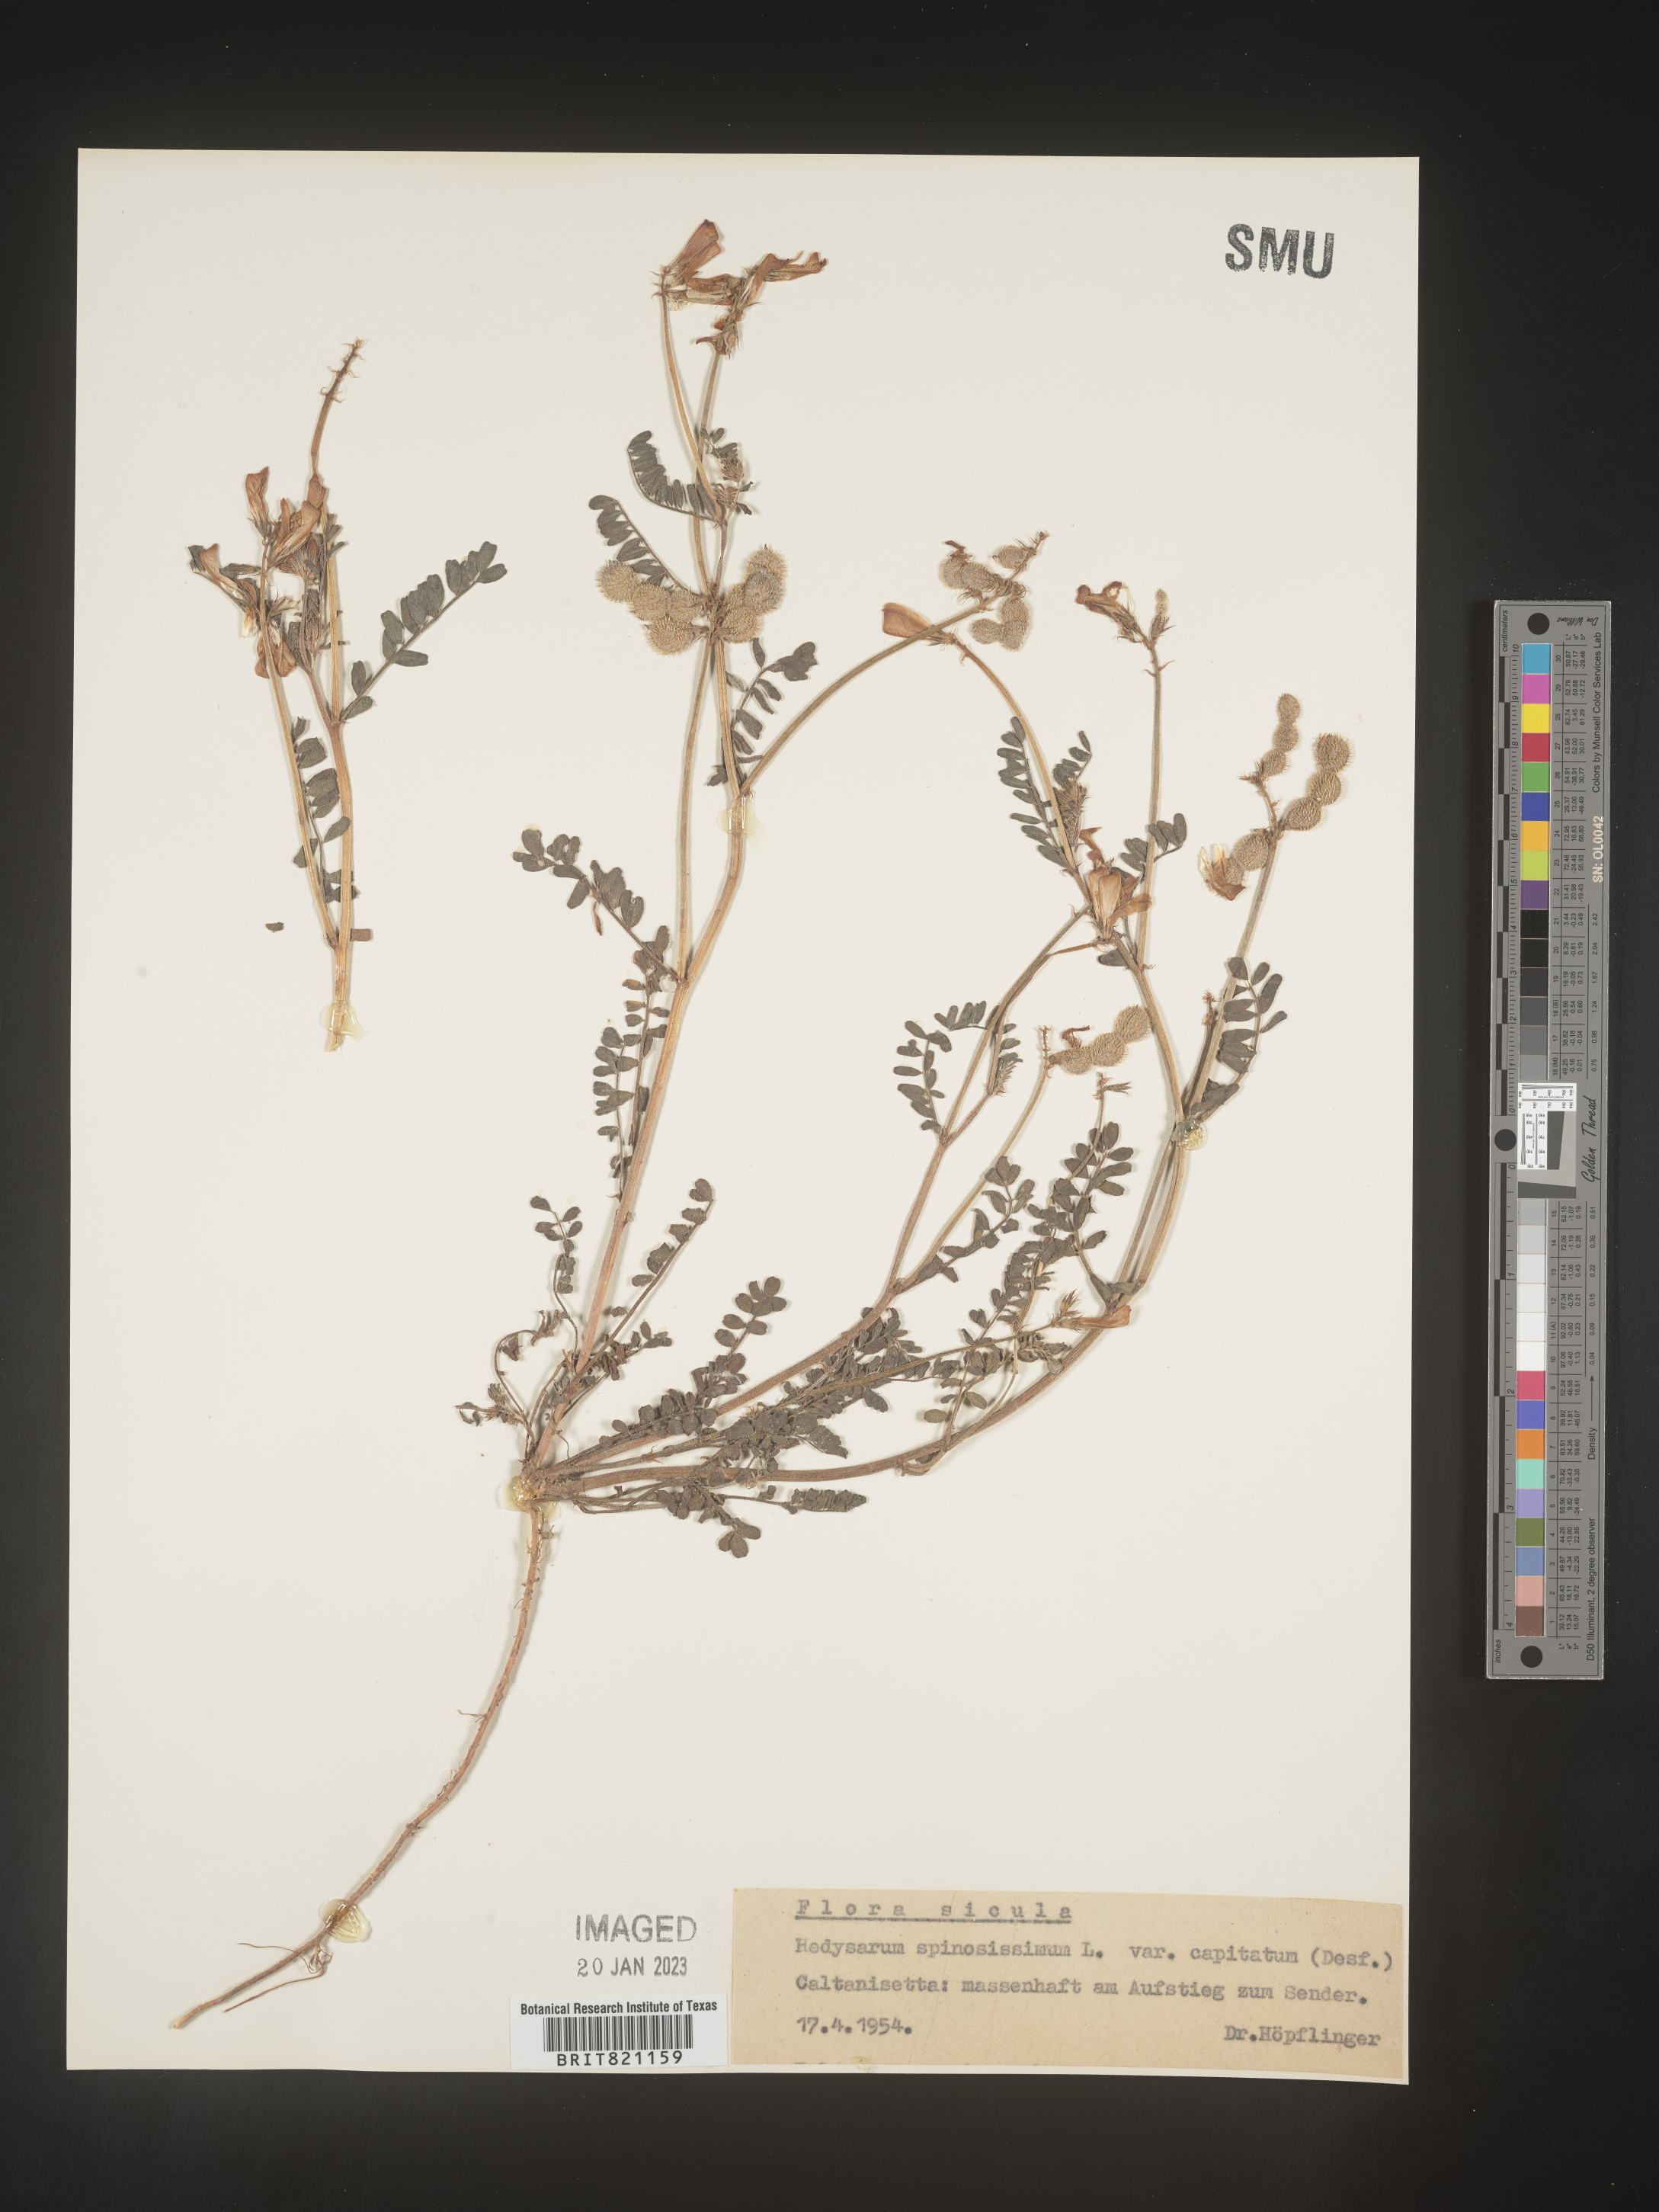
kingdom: Plantae
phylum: Tracheophyta
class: Magnoliopsida
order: Fabales
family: Fabaceae
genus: Hedysarum
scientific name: Hedysarum
